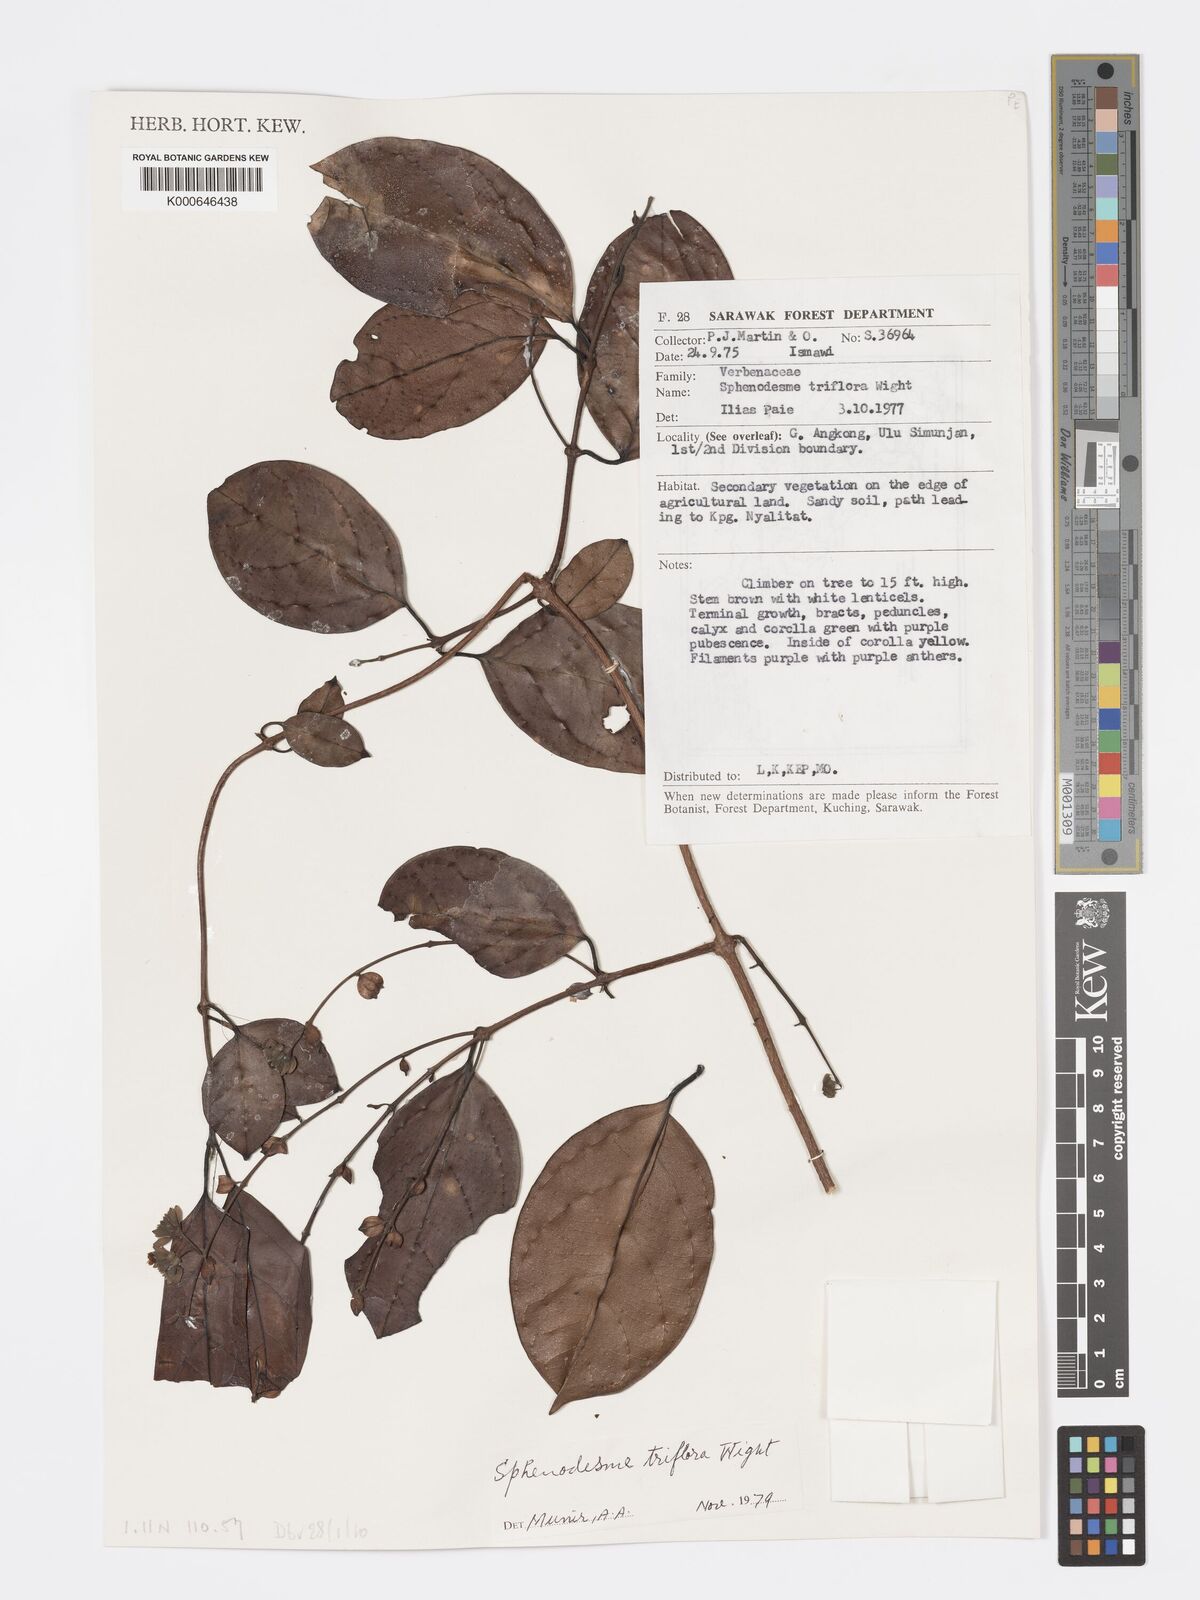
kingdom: Plantae
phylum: Tracheophyta
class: Magnoliopsida
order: Lamiales
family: Lamiaceae
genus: Sphenodesme
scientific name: Sphenodesme triflora
